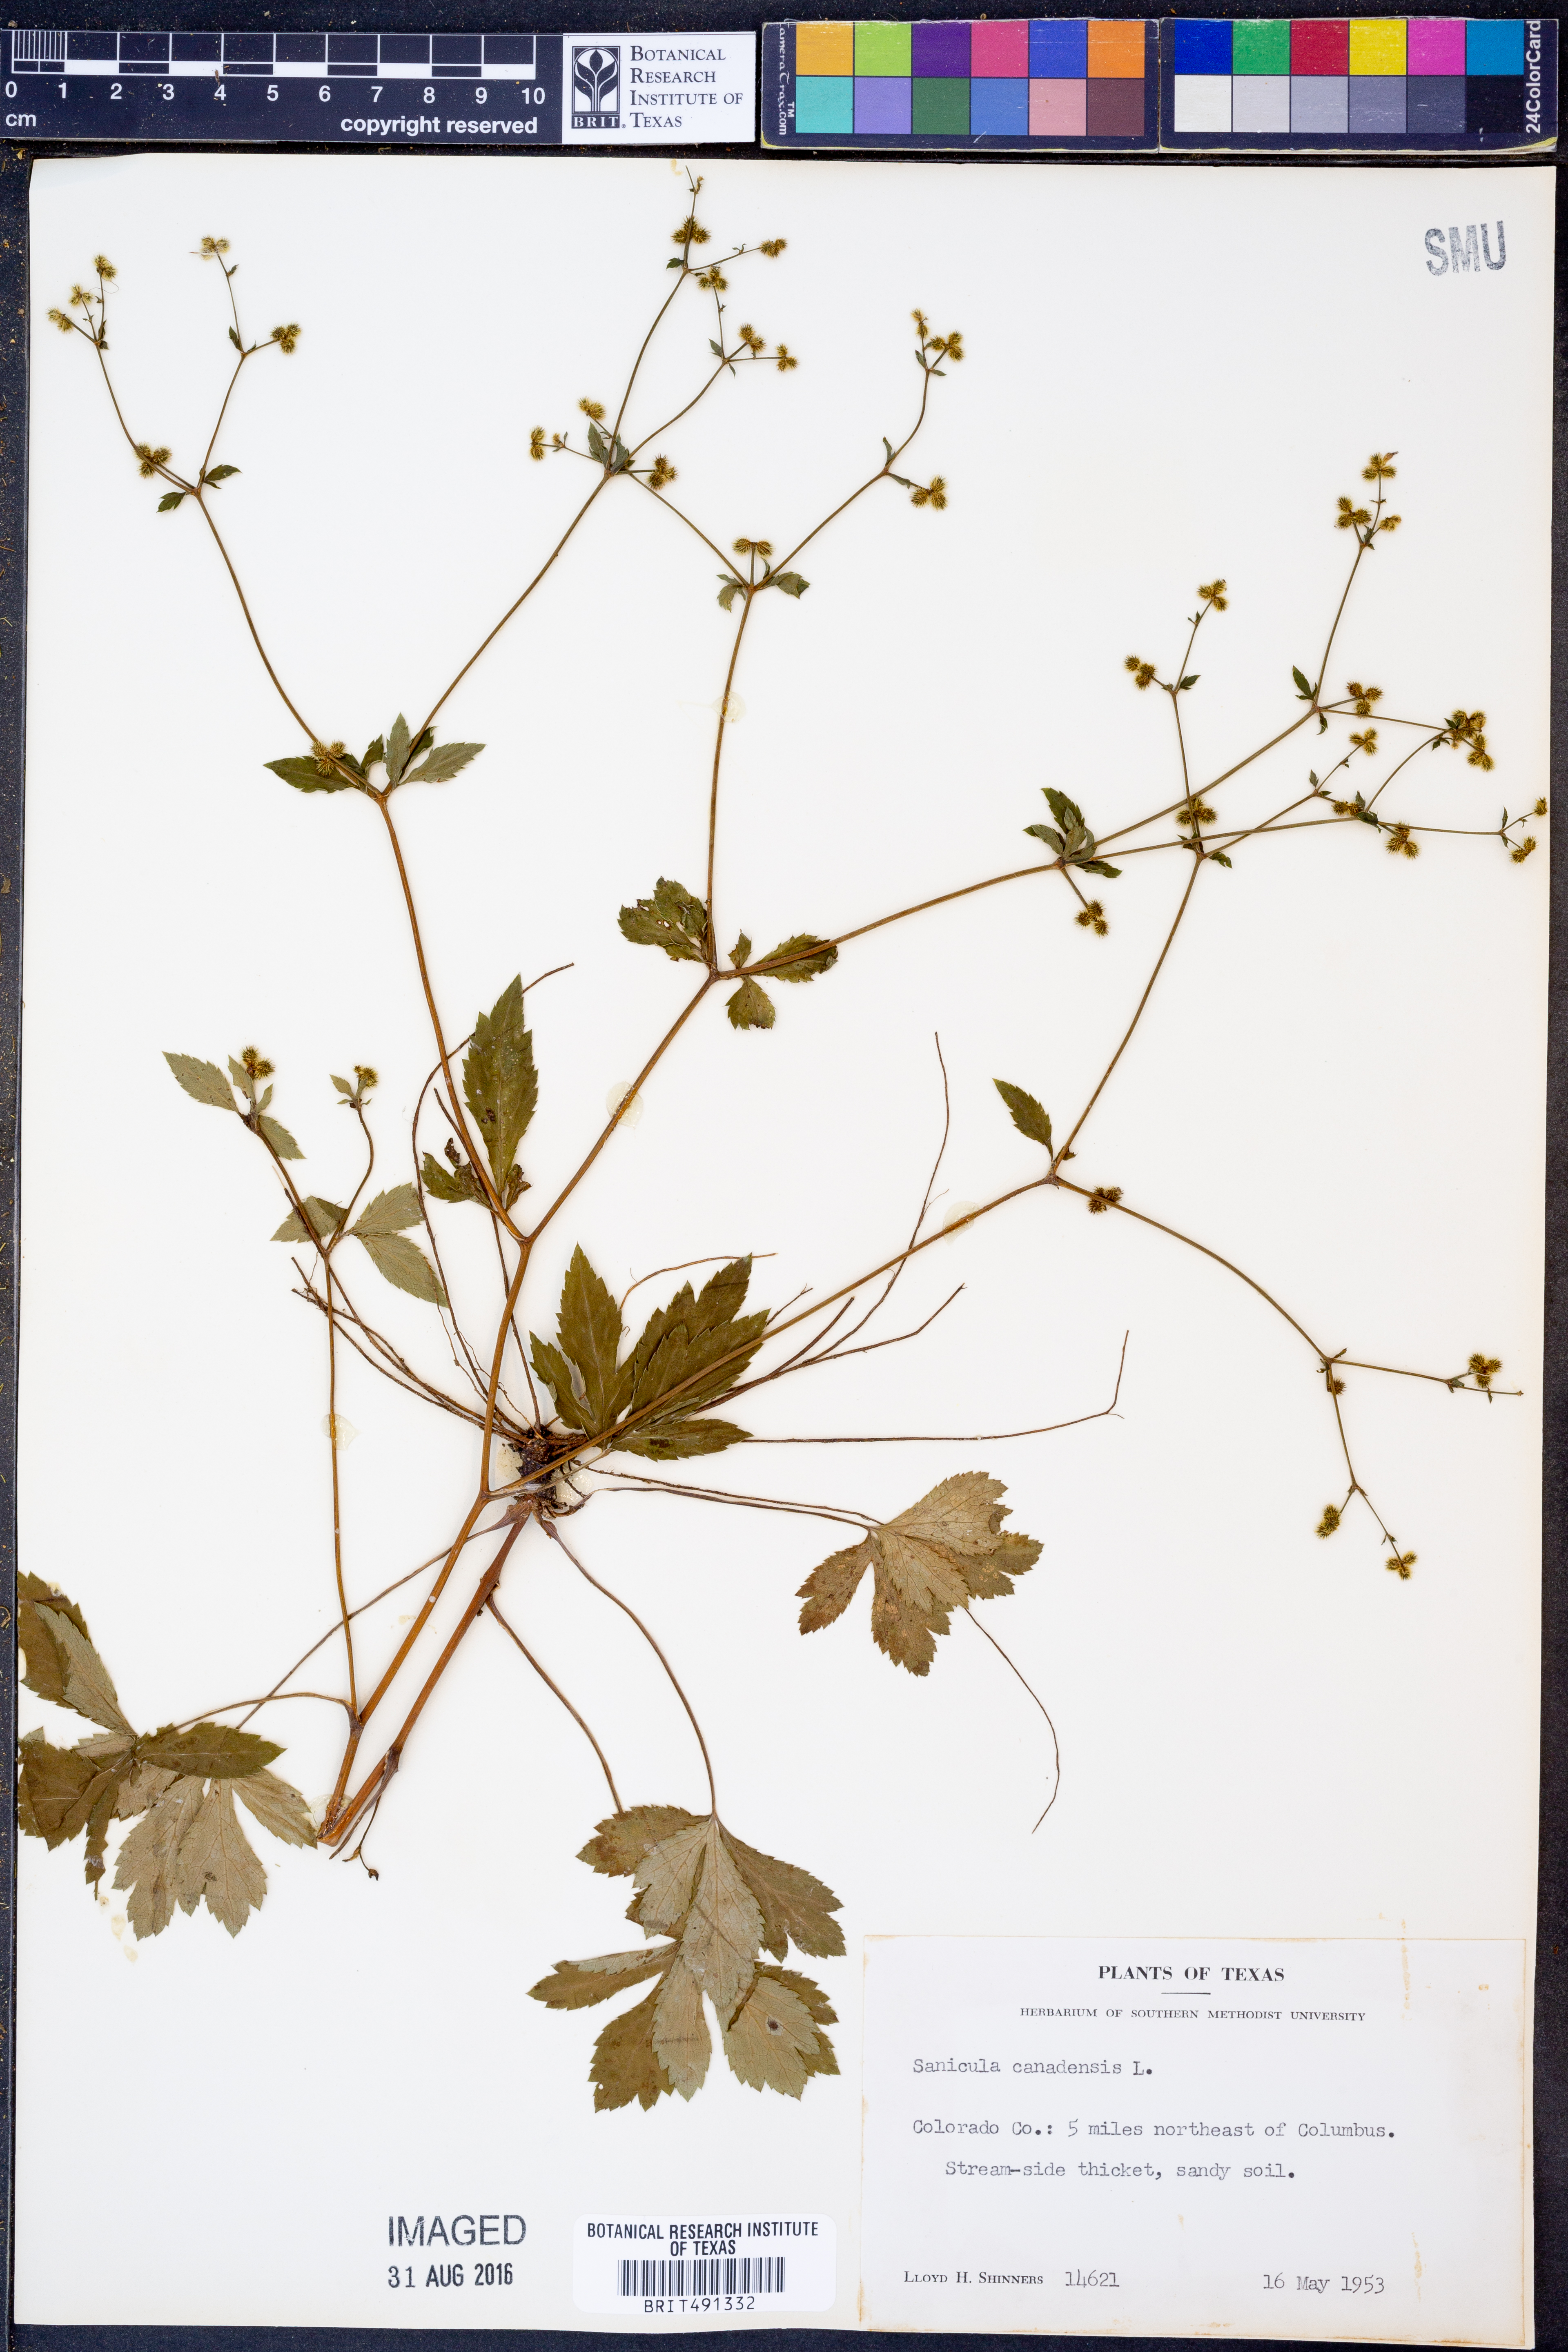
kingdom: Plantae
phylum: Tracheophyta
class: Magnoliopsida
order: Apiales
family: Apiaceae
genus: Sanicula
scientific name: Sanicula canadensis
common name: Canada sanicle
